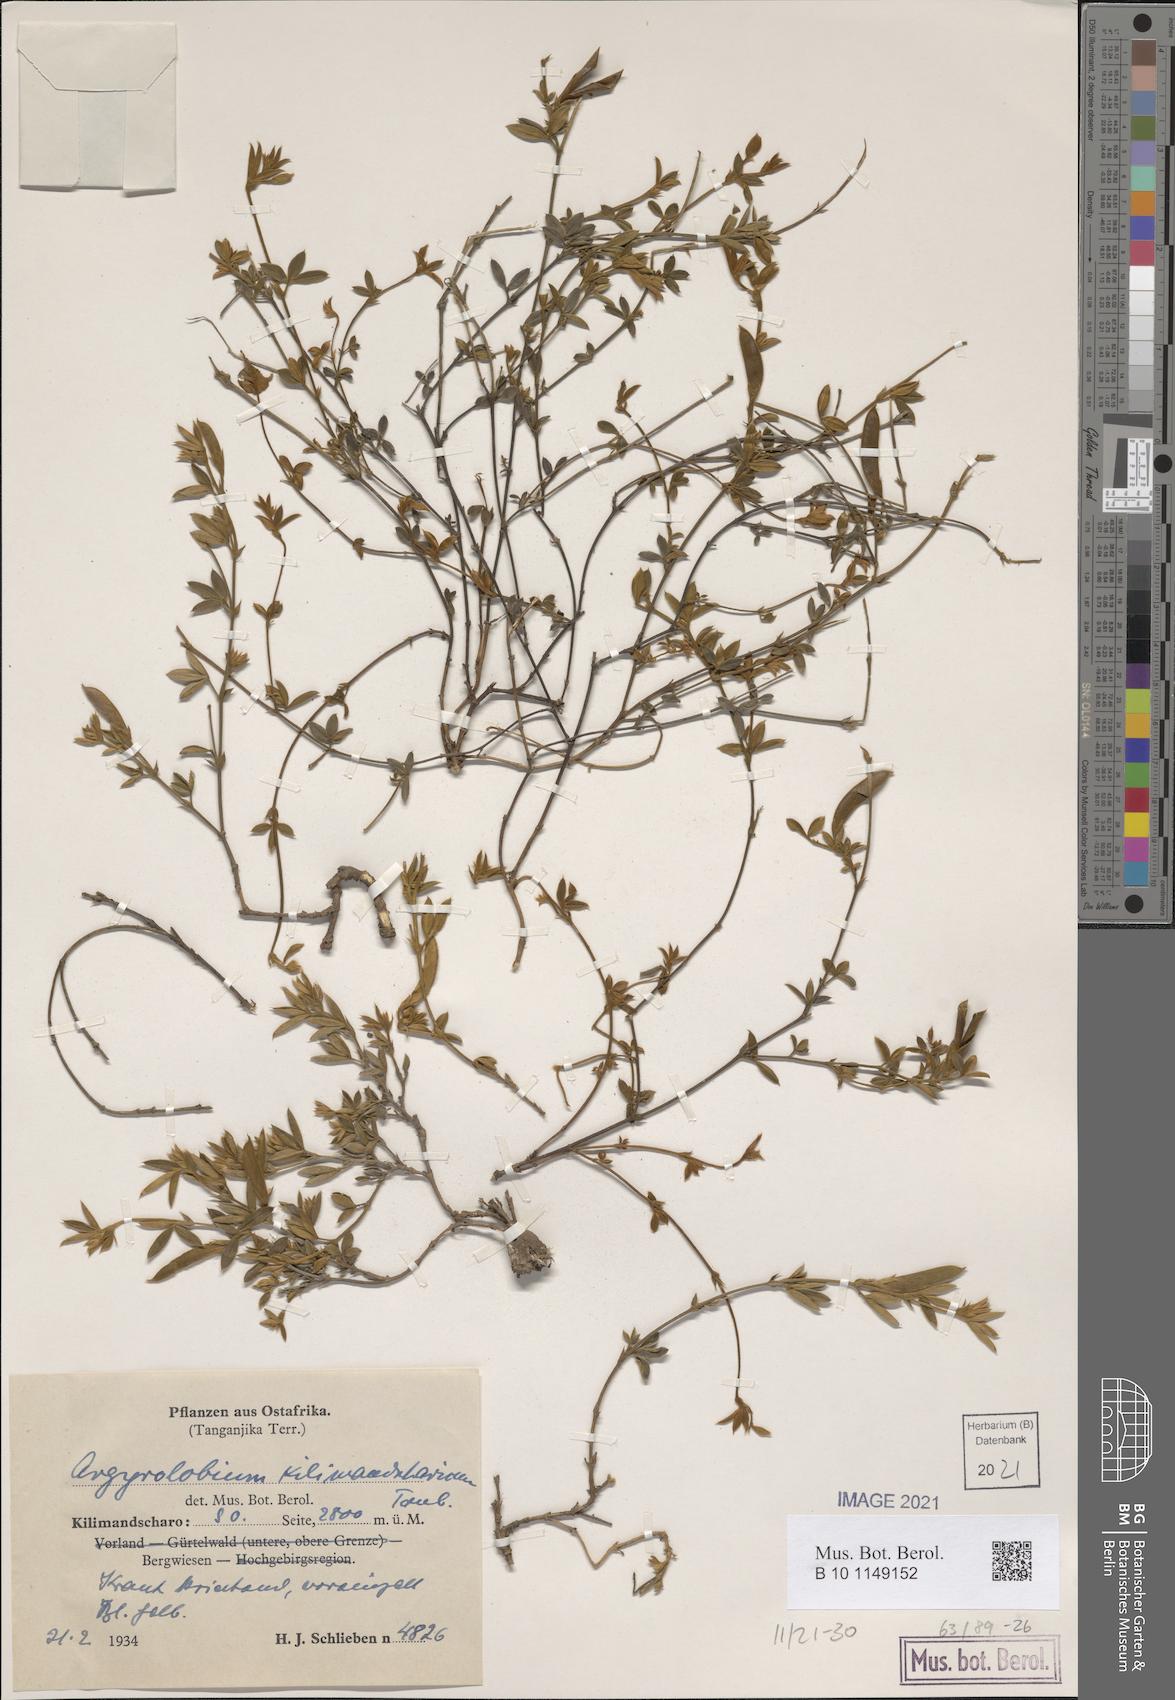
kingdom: Plantae
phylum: Tracheophyta
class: Magnoliopsida
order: Fabales
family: Fabaceae
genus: Argyrolobium
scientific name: Argyrolobium rupestre
